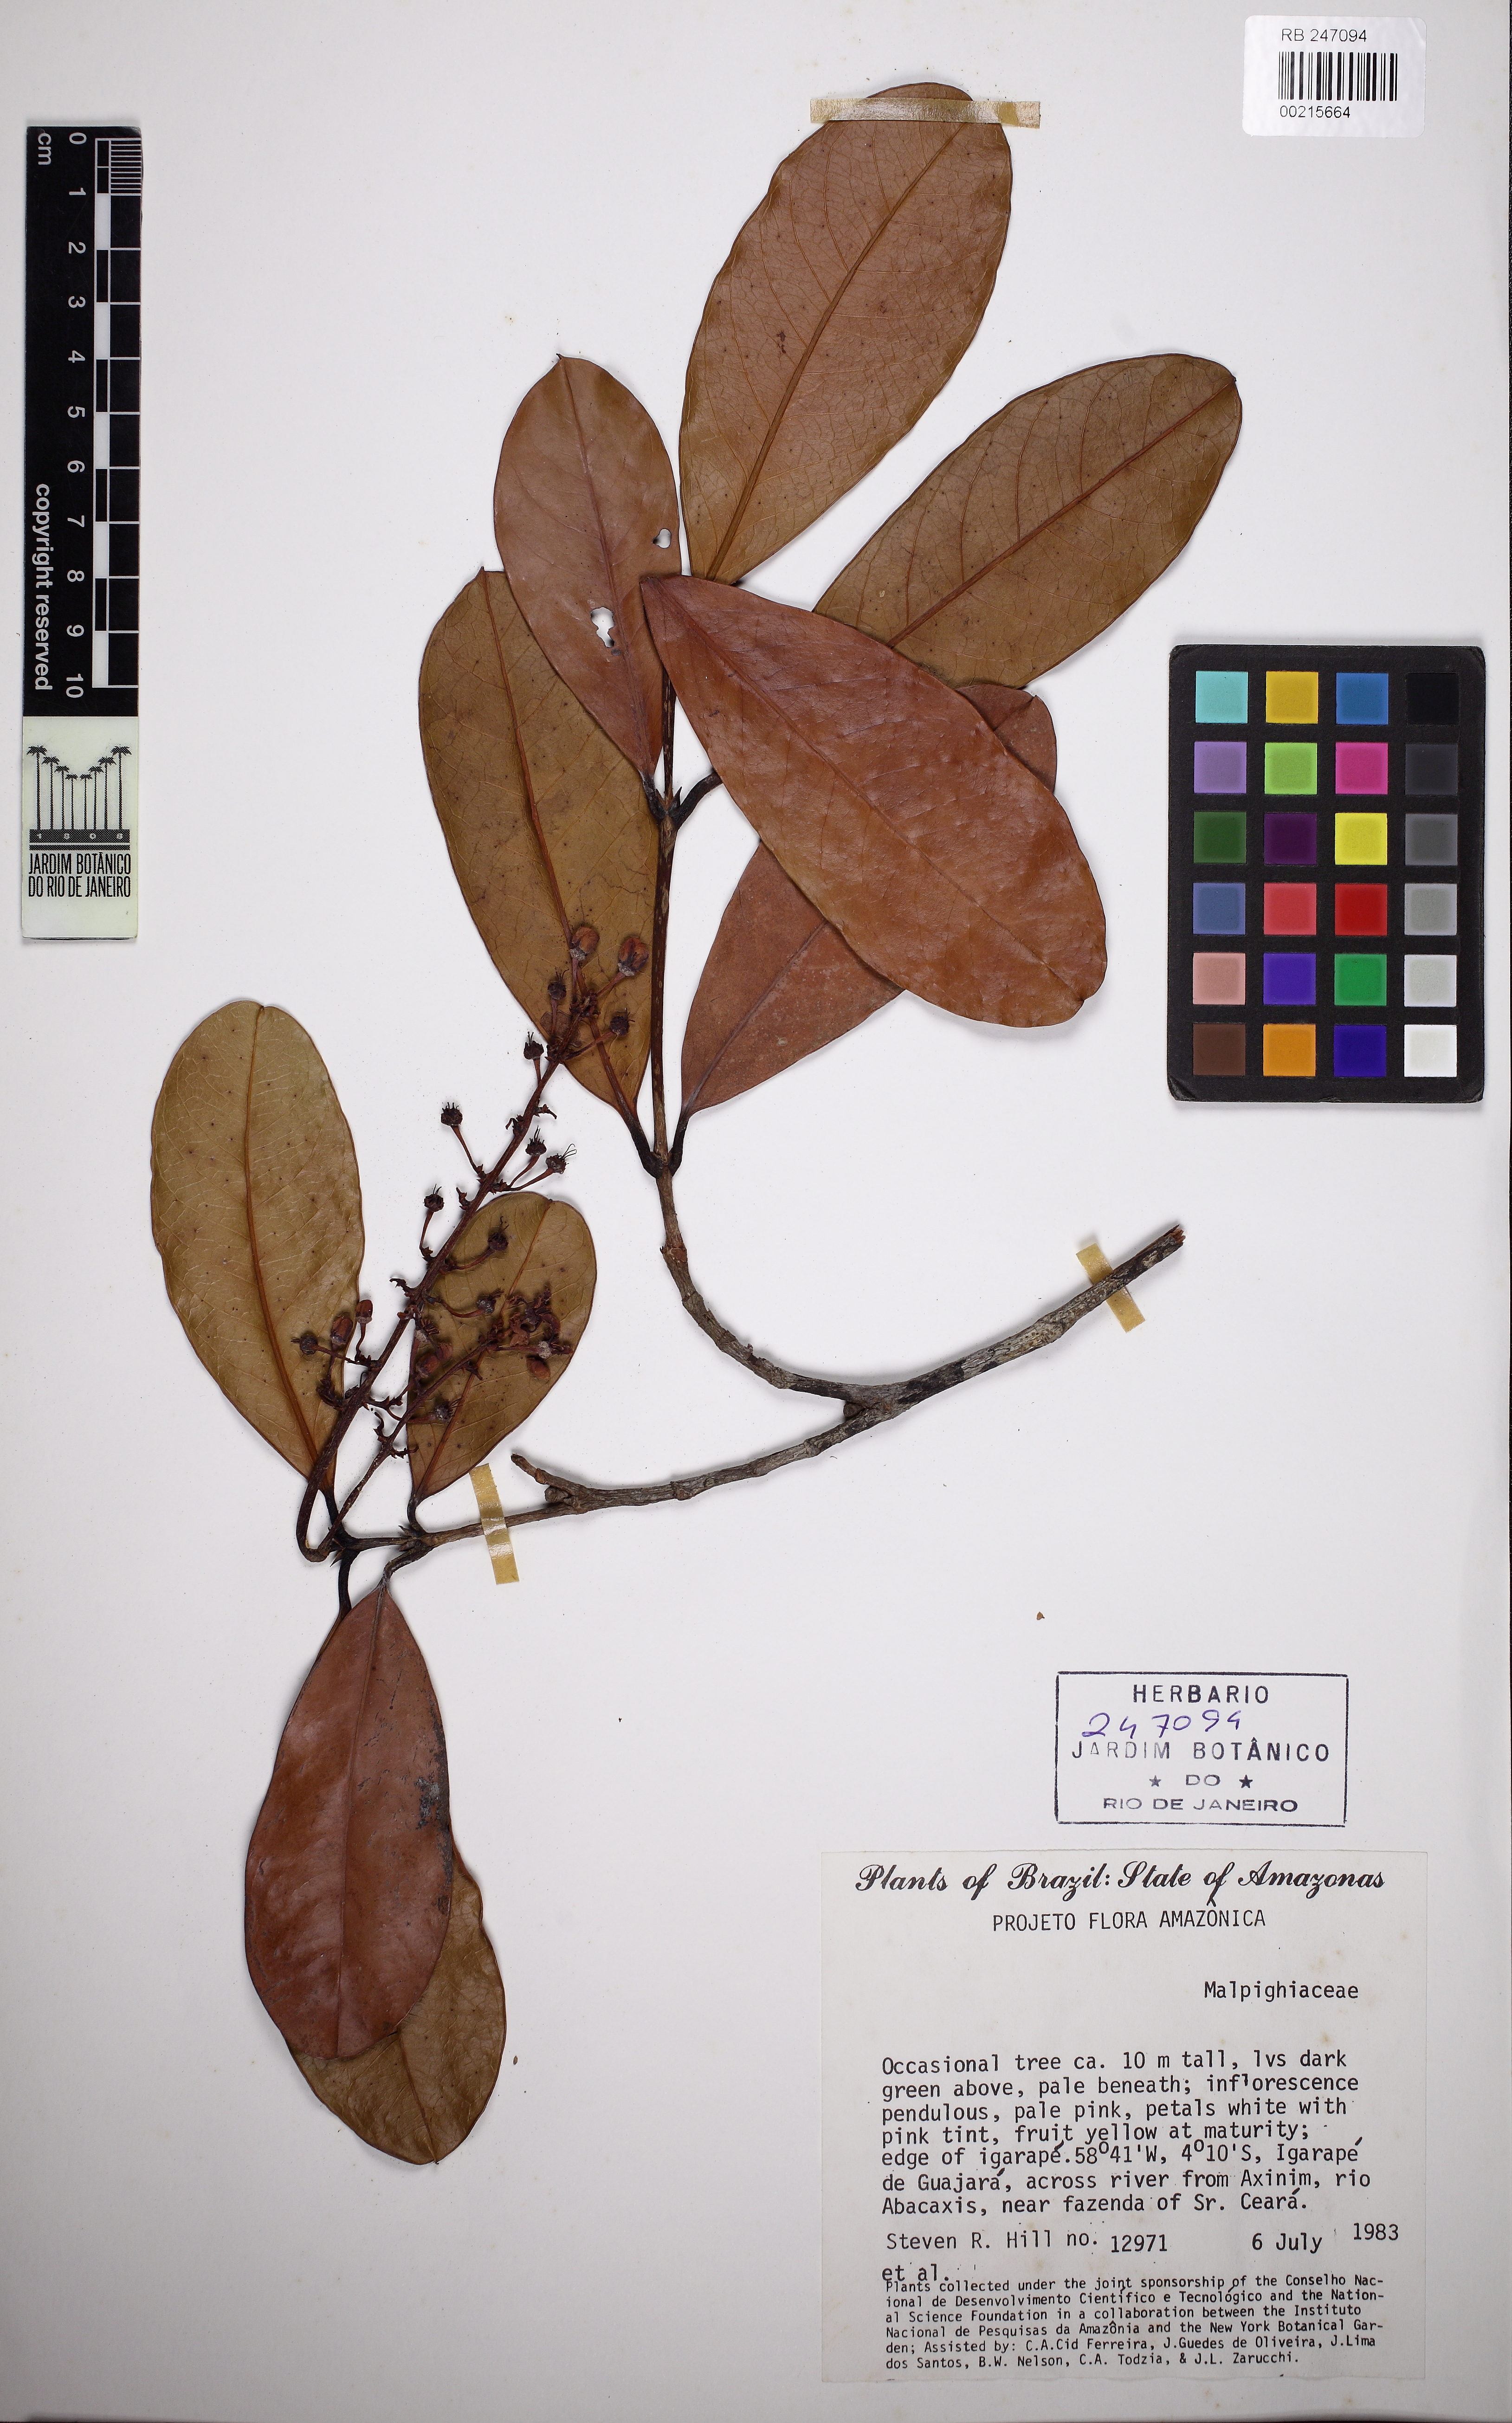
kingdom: Plantae
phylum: Tracheophyta
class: Magnoliopsida
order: Malpighiales
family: Malpighiaceae
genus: Andersoniodoxa
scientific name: Andersoniodoxa spruceana
